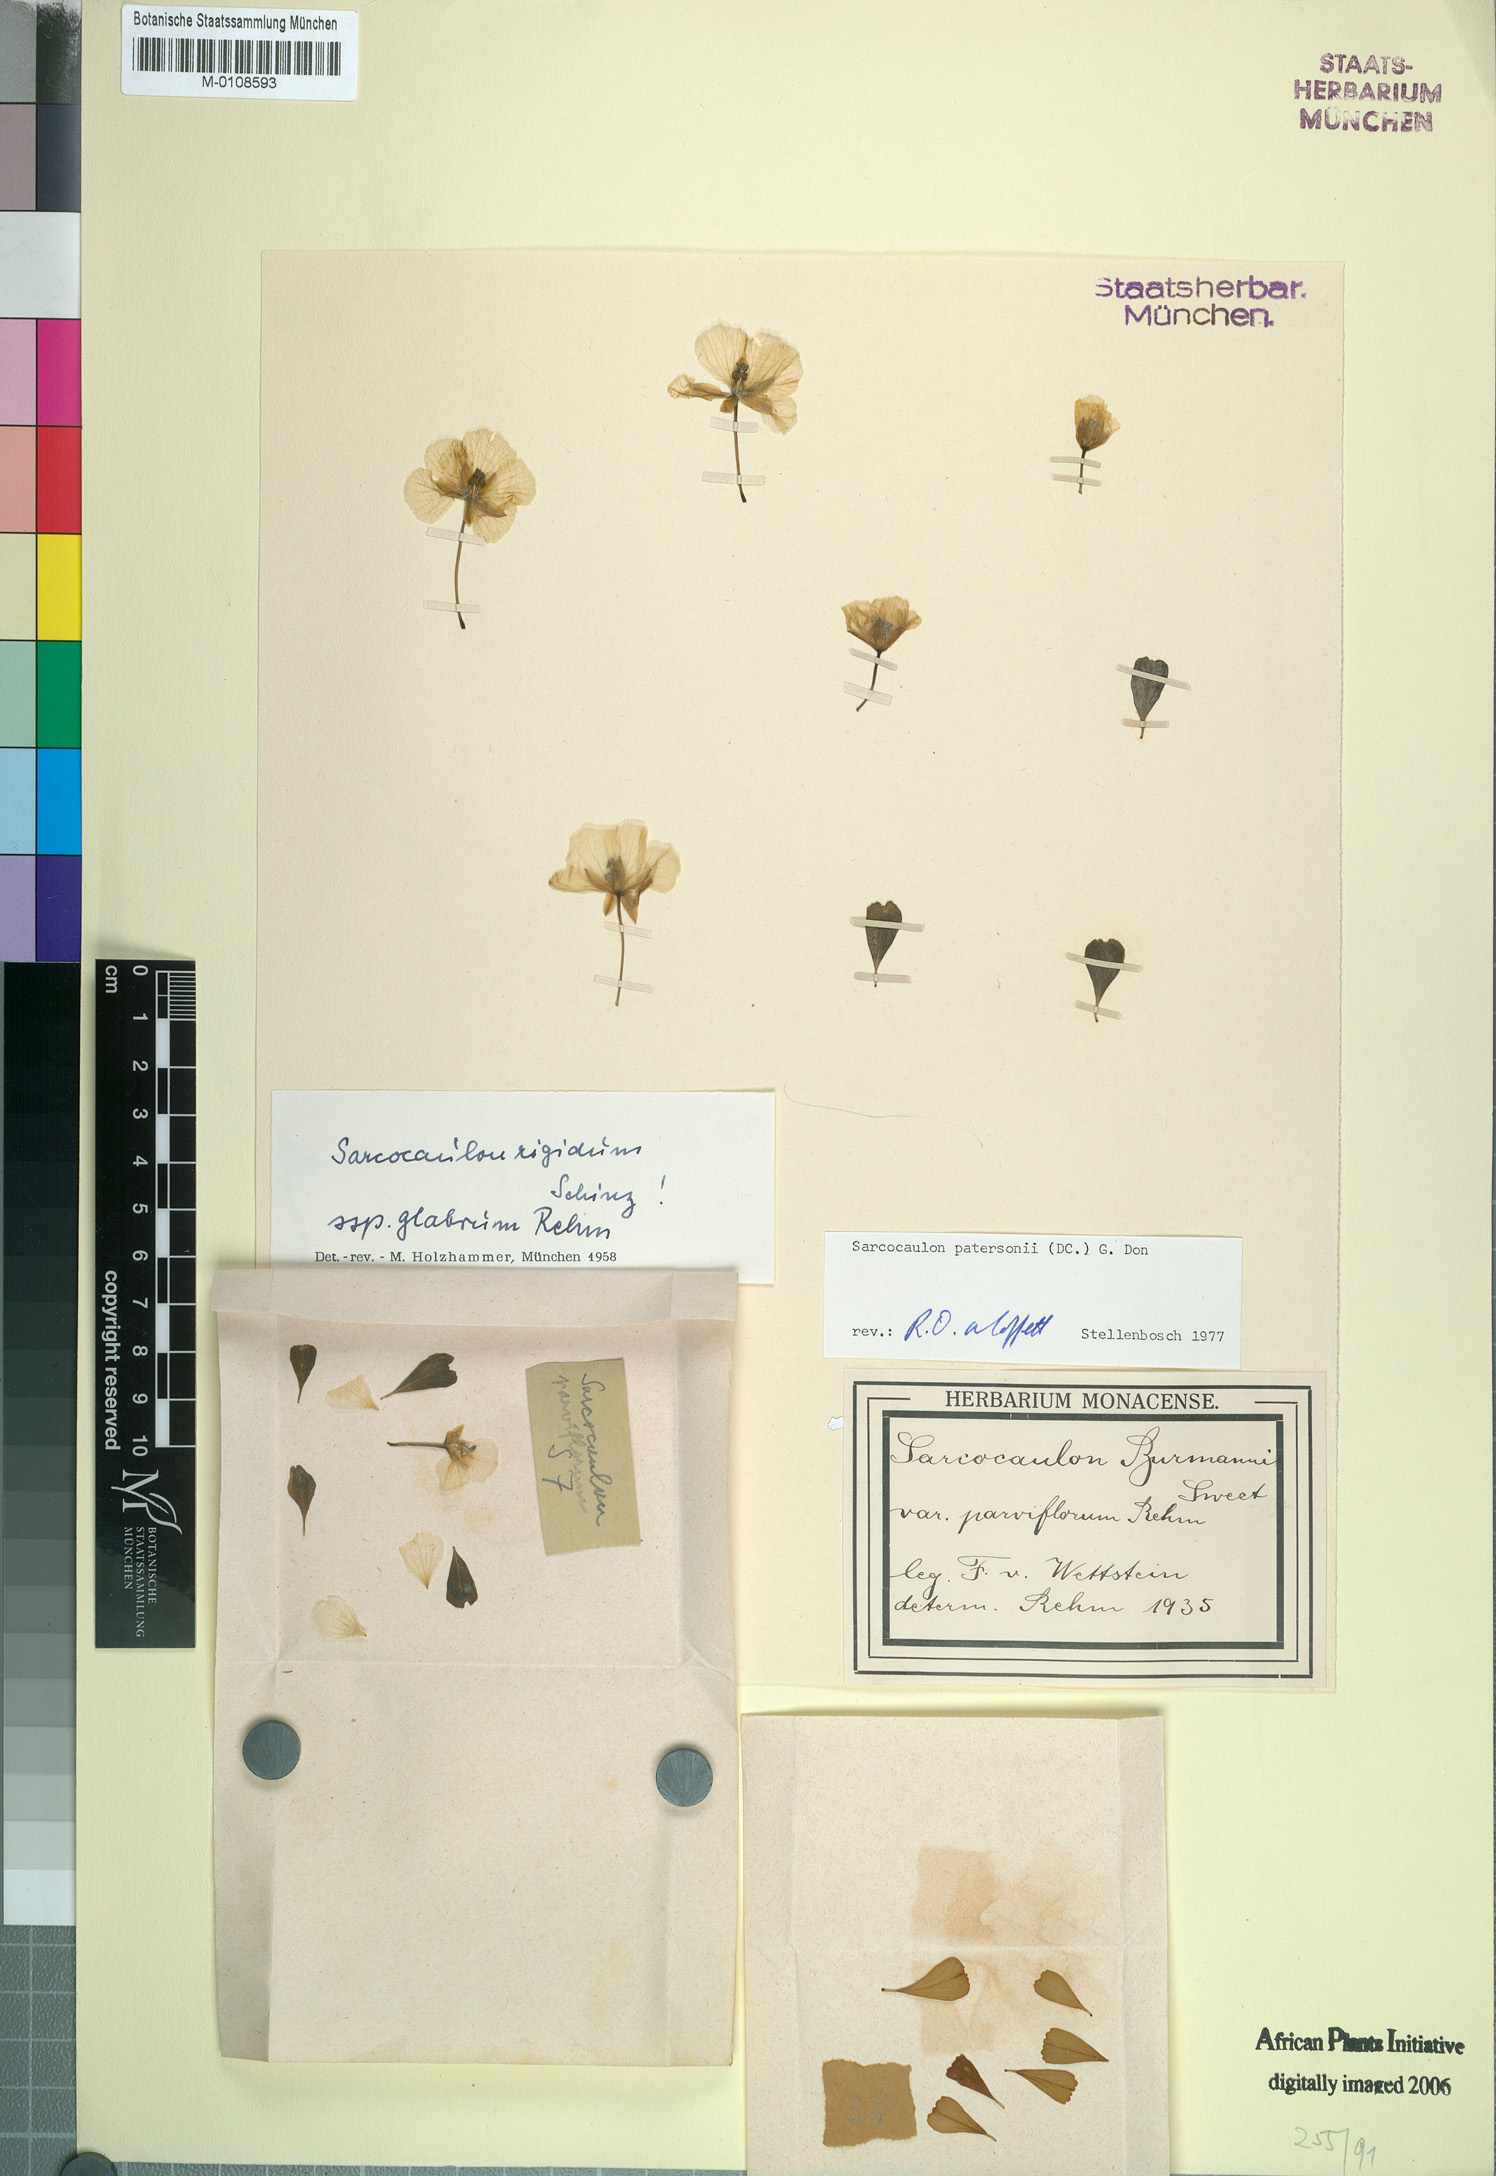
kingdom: Plantae
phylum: Tracheophyta
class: Magnoliopsida
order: Geraniales
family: Geraniaceae
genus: Monsonia
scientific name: Monsonia patersonii
